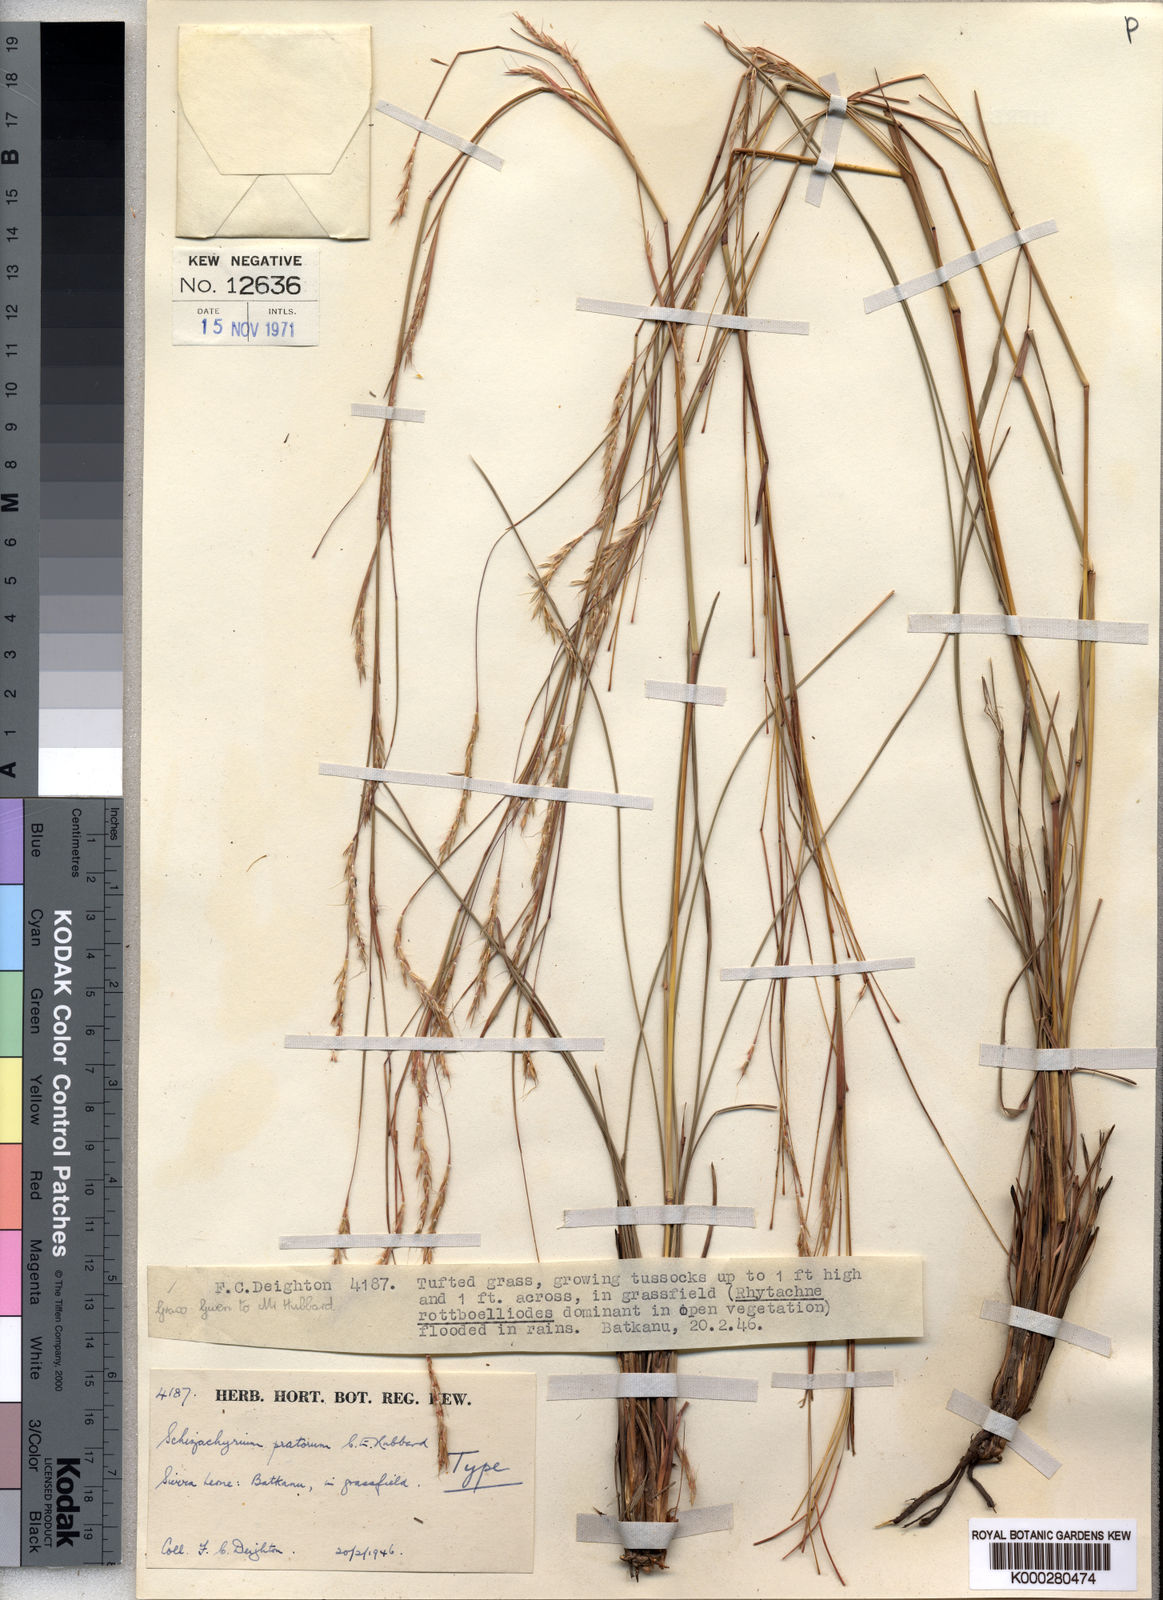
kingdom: Plantae
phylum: Tracheophyta
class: Liliopsida
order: Poales
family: Poaceae
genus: Andropogon
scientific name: Andropogon rupestris
